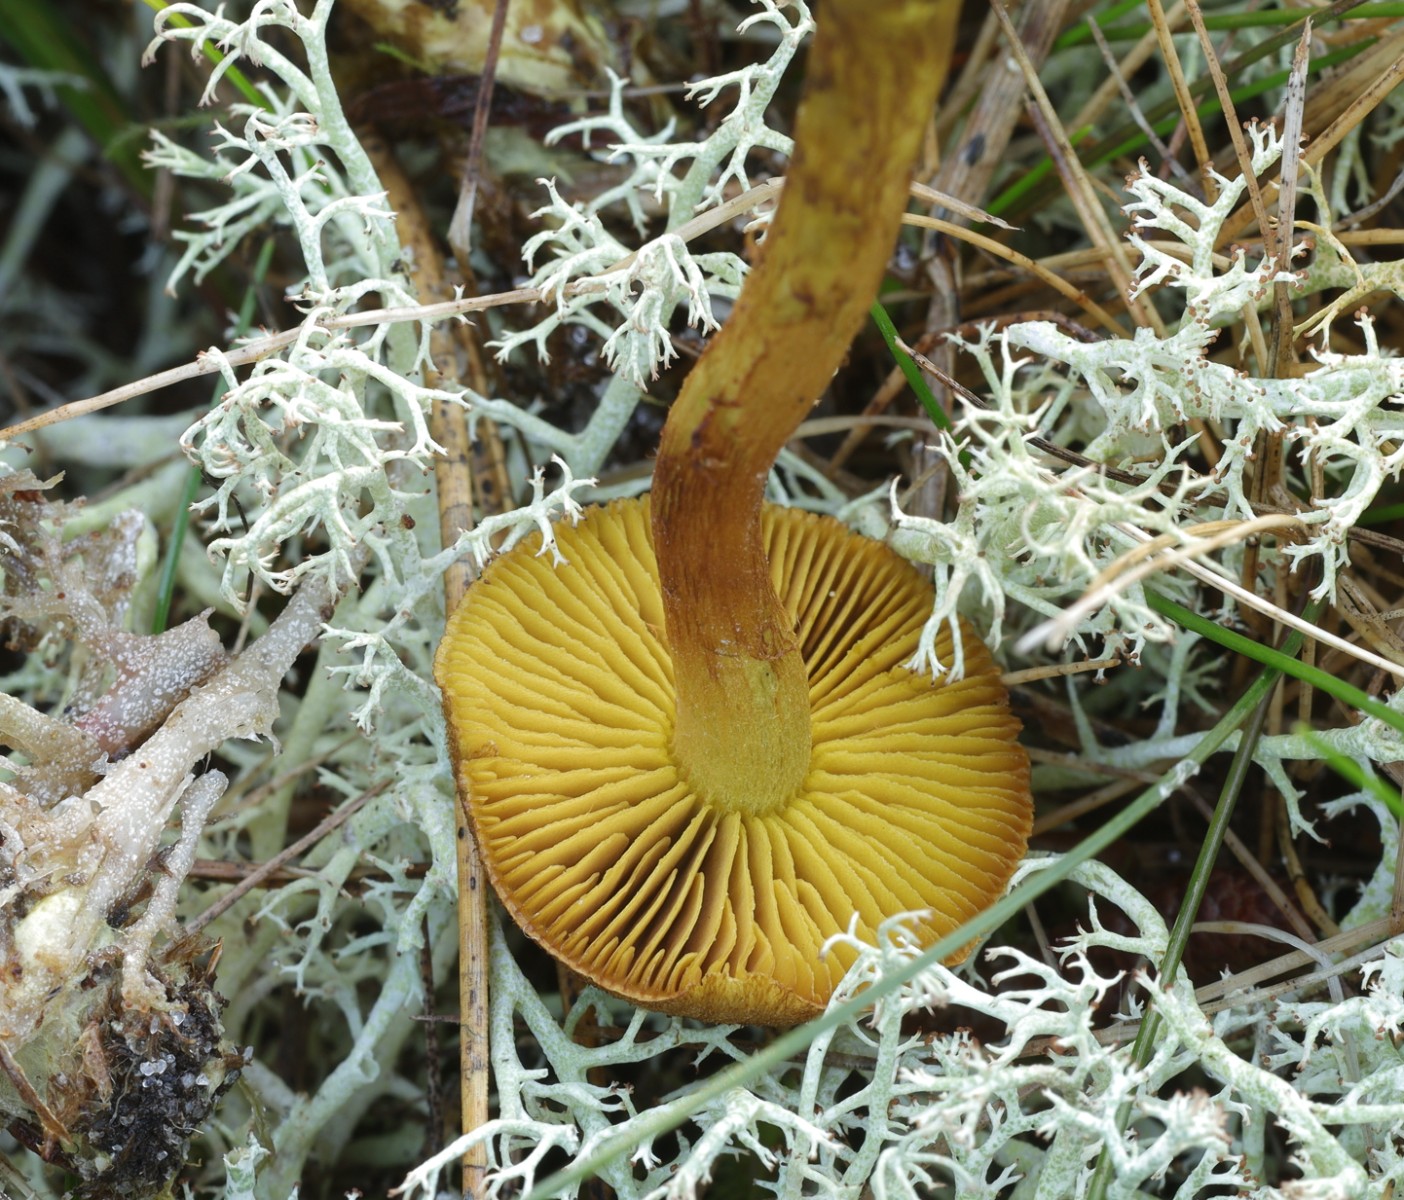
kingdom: Fungi
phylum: Basidiomycota
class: Agaricomycetes
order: Agaricales
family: Cortinariaceae
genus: Cortinarius
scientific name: Cortinarius holoxanthus
